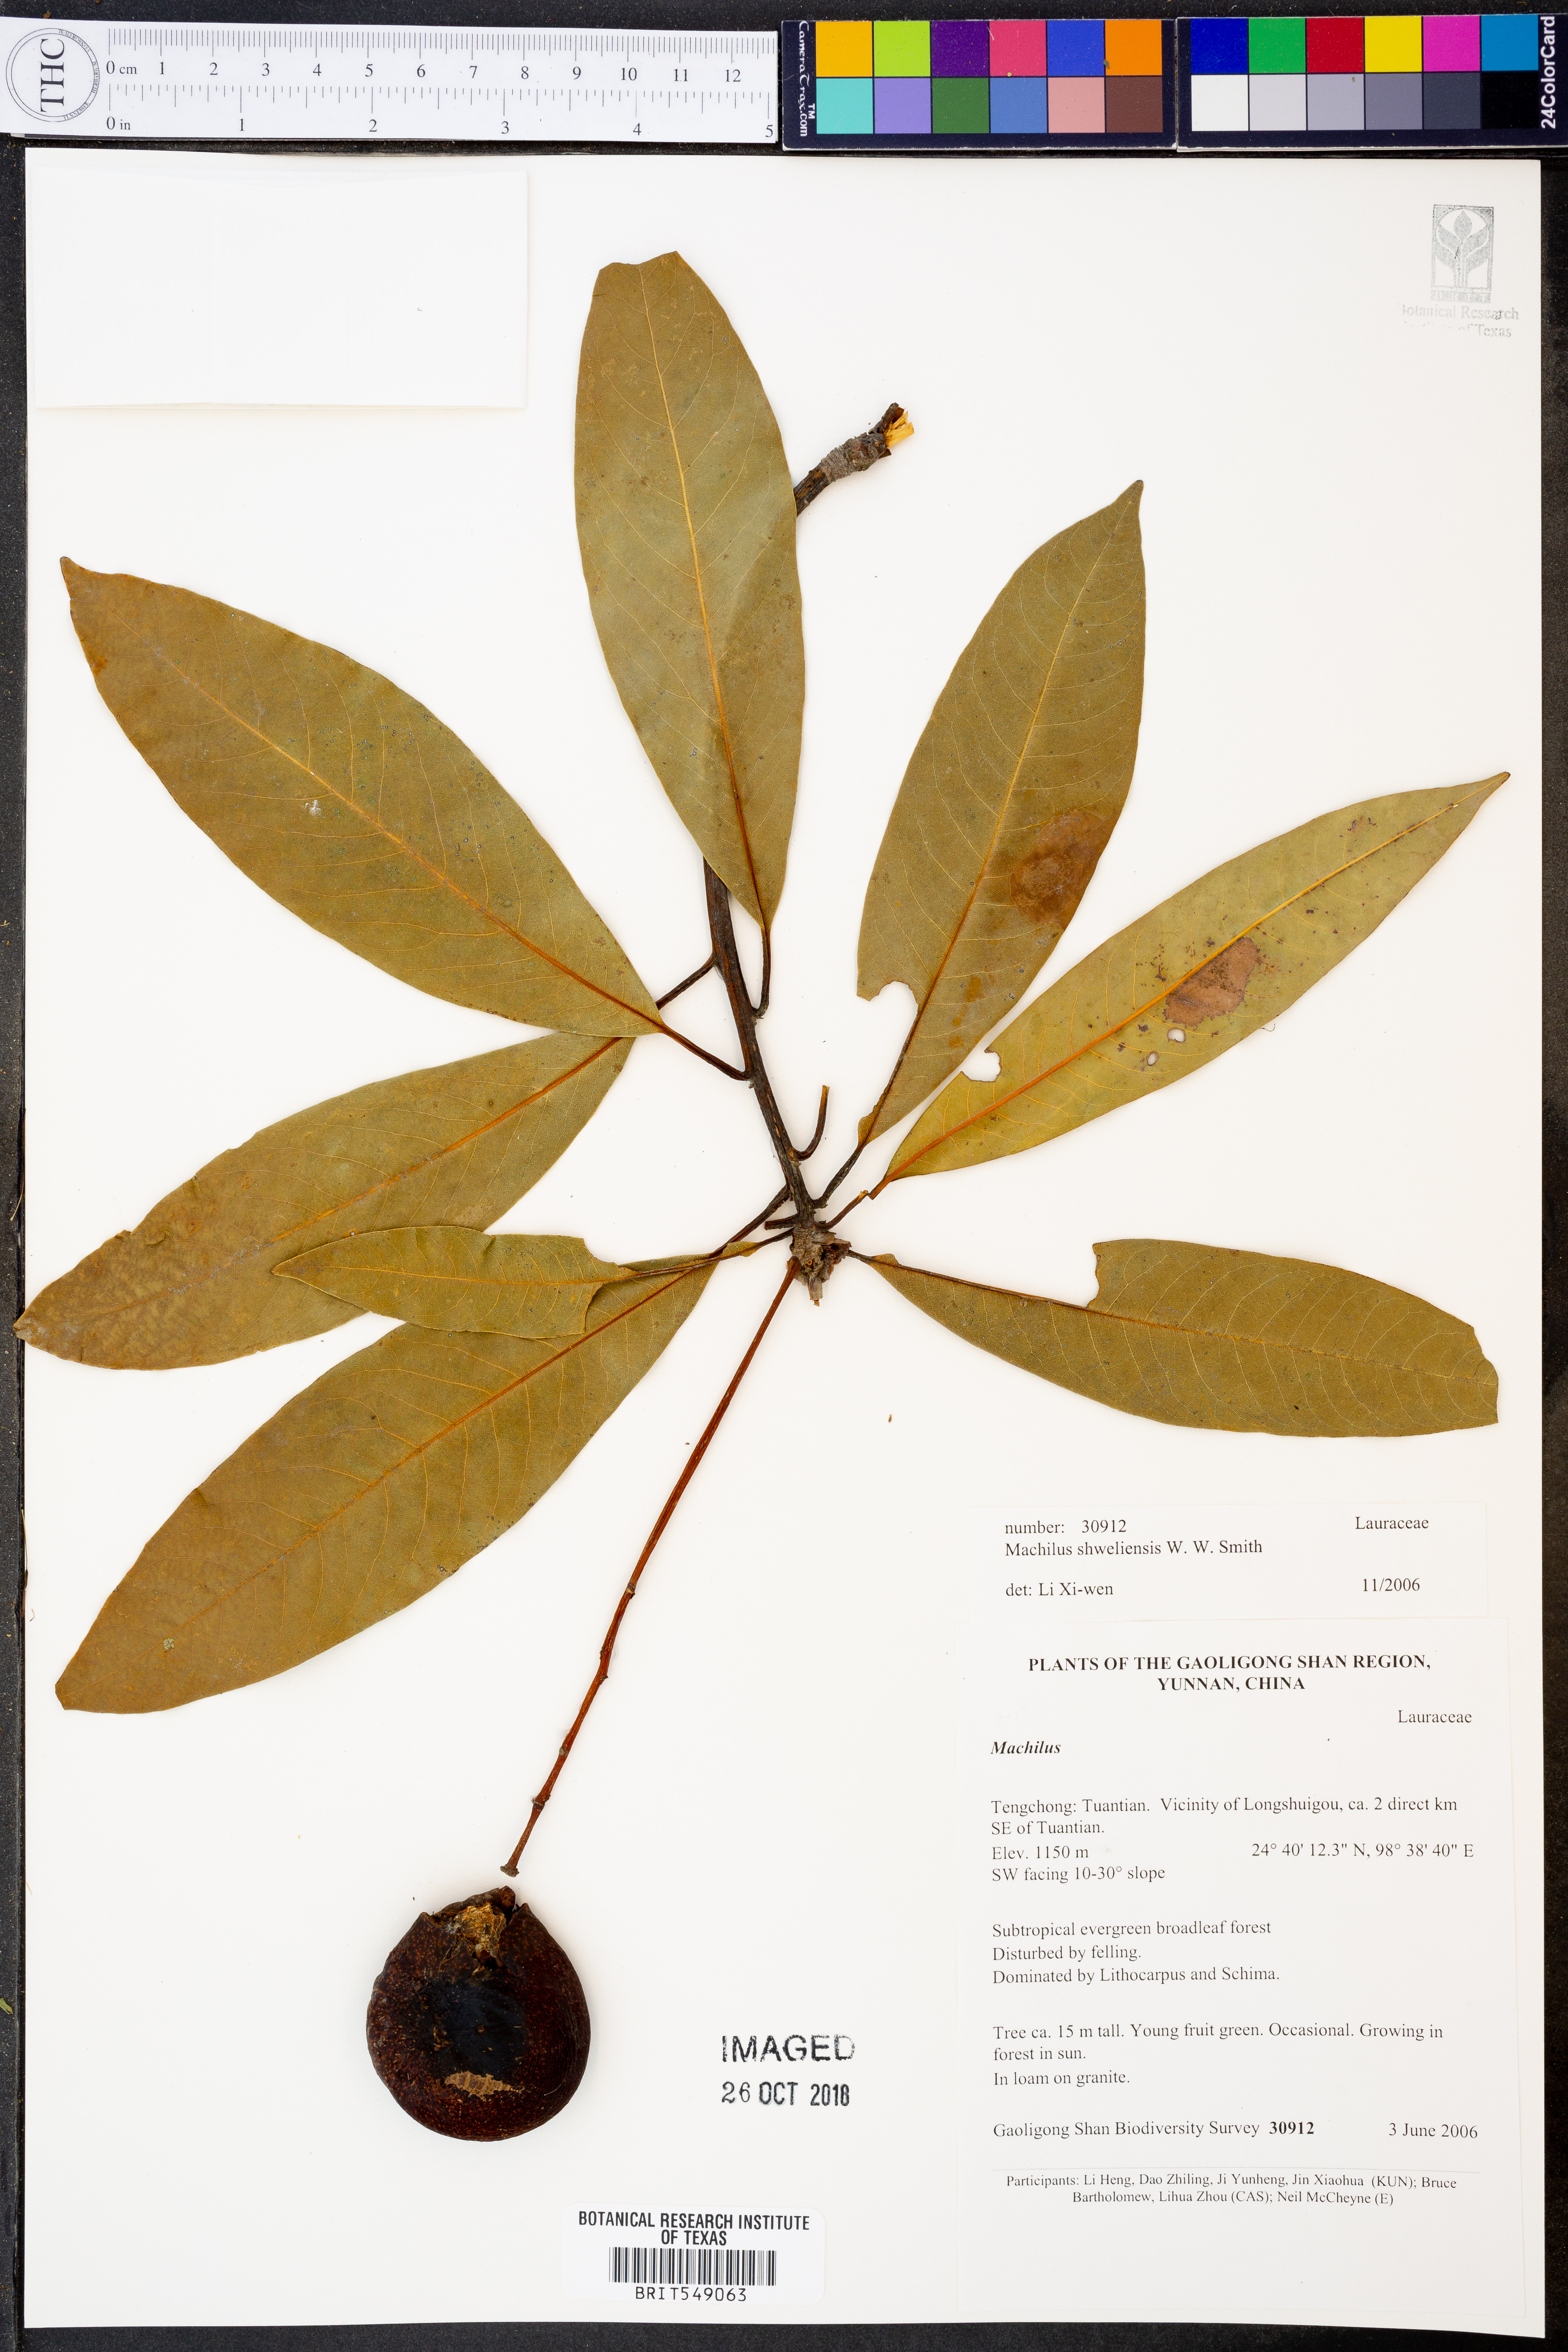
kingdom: Plantae
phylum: Tracheophyta
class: Magnoliopsida
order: Laurales
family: Lauraceae
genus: Machilus
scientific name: Machilus shweliensis
